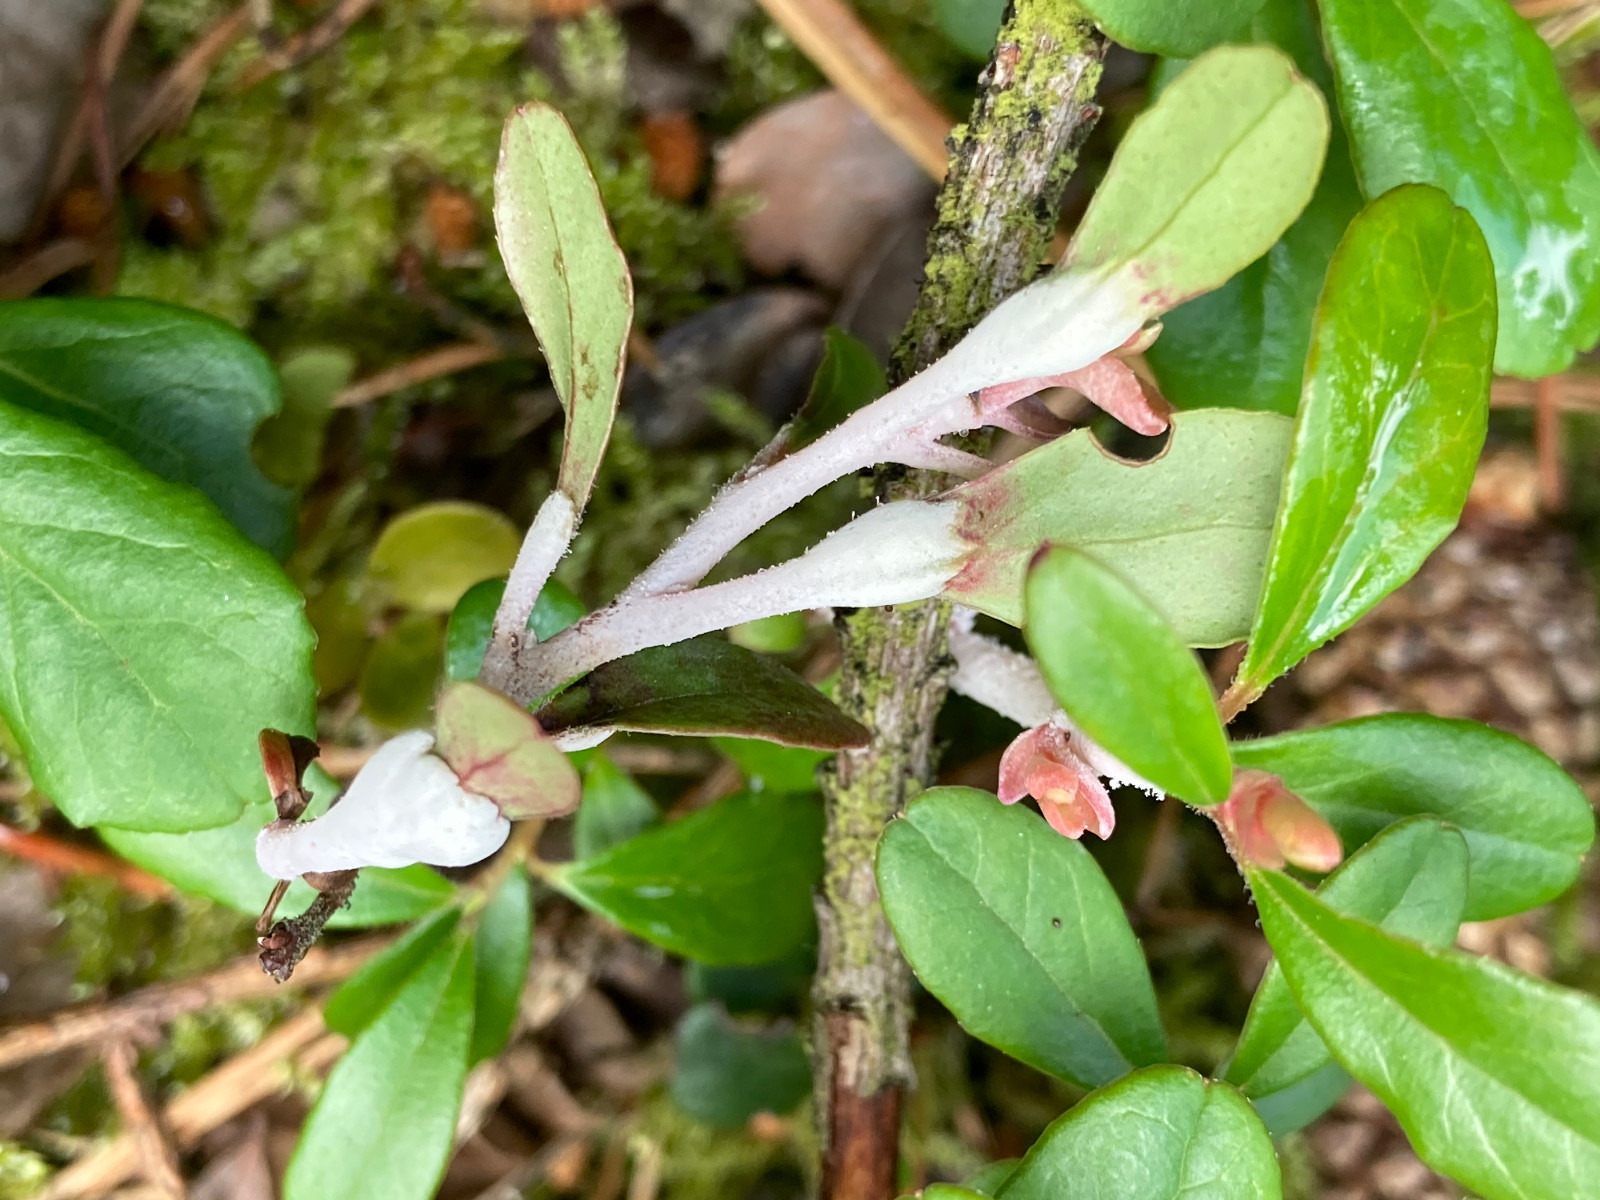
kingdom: Fungi
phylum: Basidiomycota
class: Exobasidiomycetes
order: Exobasidiales
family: Exobasidiaceae
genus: Exobasidium
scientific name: Exobasidium vaccinii
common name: tyttebærblad-bøllesvamp
